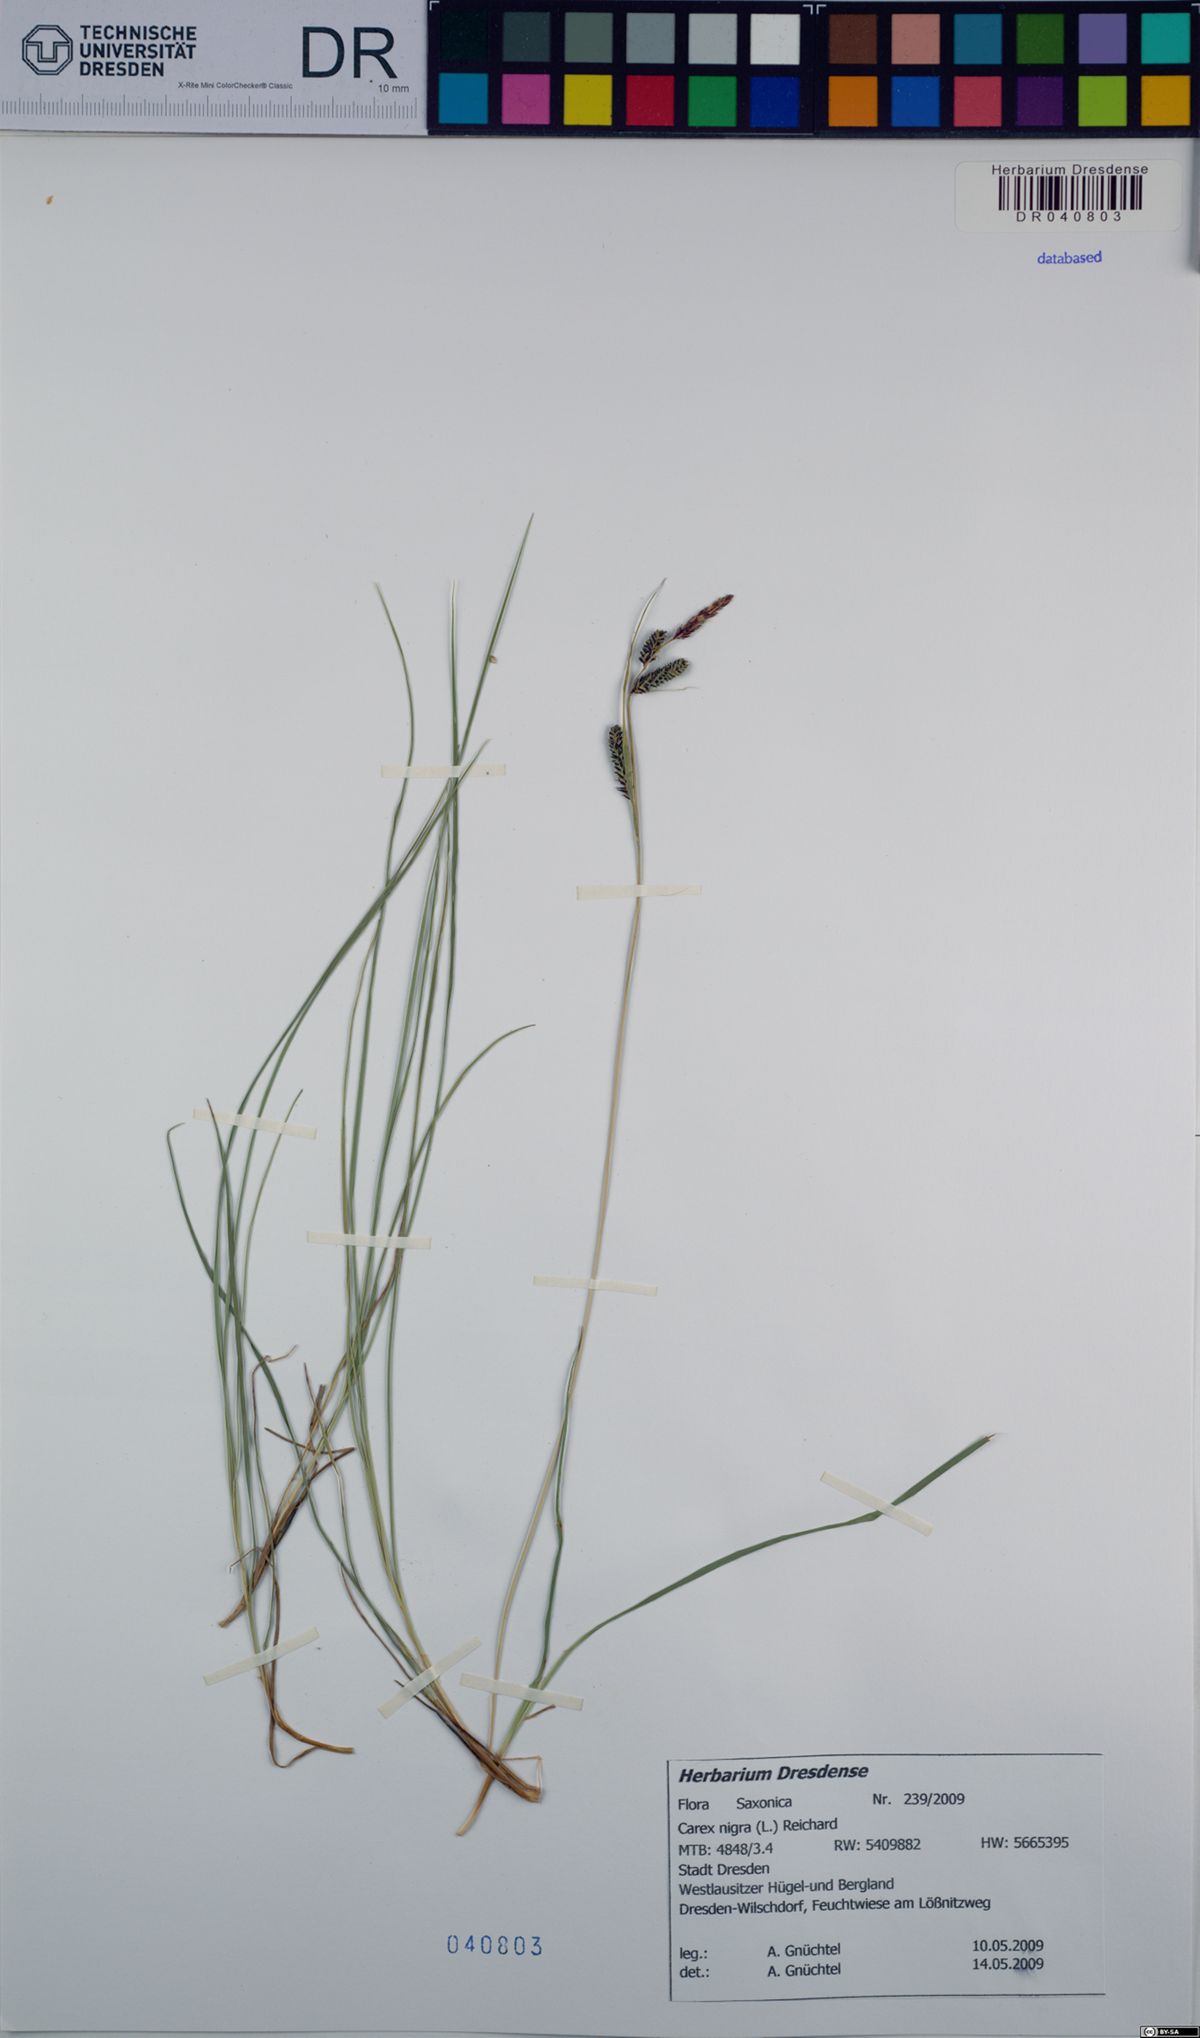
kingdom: Plantae
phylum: Tracheophyta
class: Liliopsida
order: Poales
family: Cyperaceae
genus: Carex
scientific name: Carex nigra
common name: Common sedge
